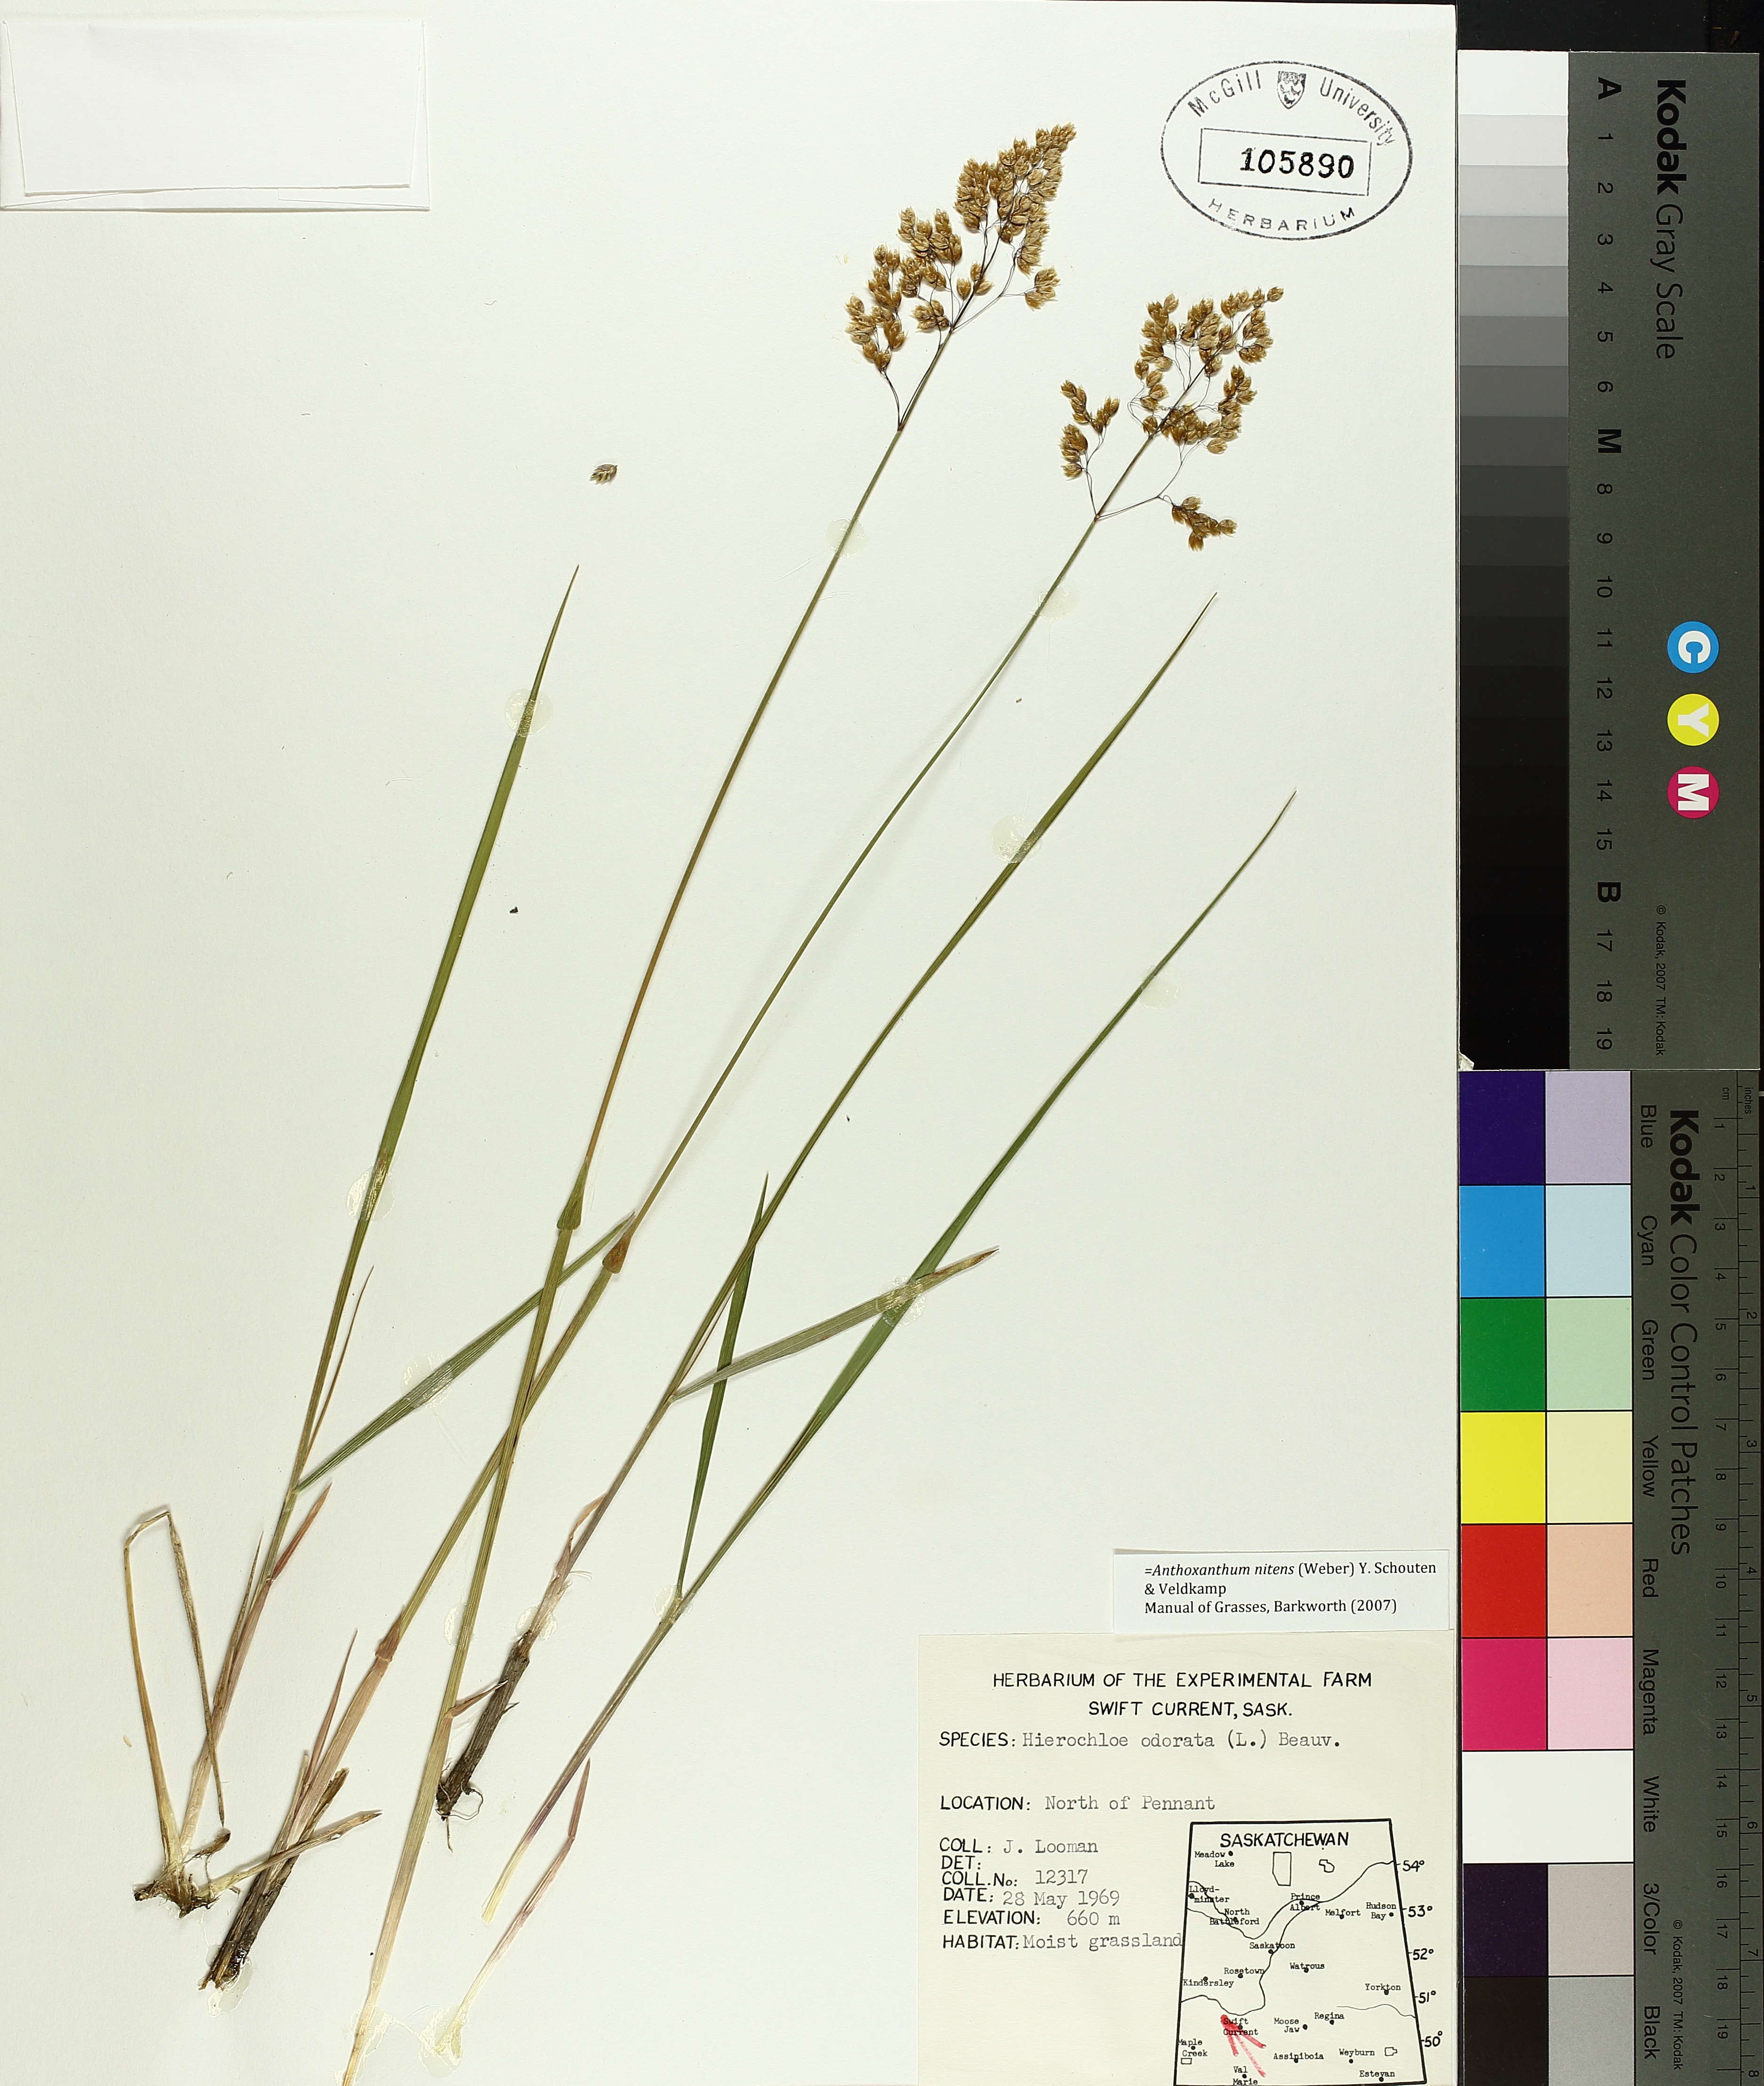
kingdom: Plantae
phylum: Tracheophyta
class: Liliopsida
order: Liliales
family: Liliaceae
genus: Clintonia
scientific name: Clintonia borealis
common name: Yellow clintonia
